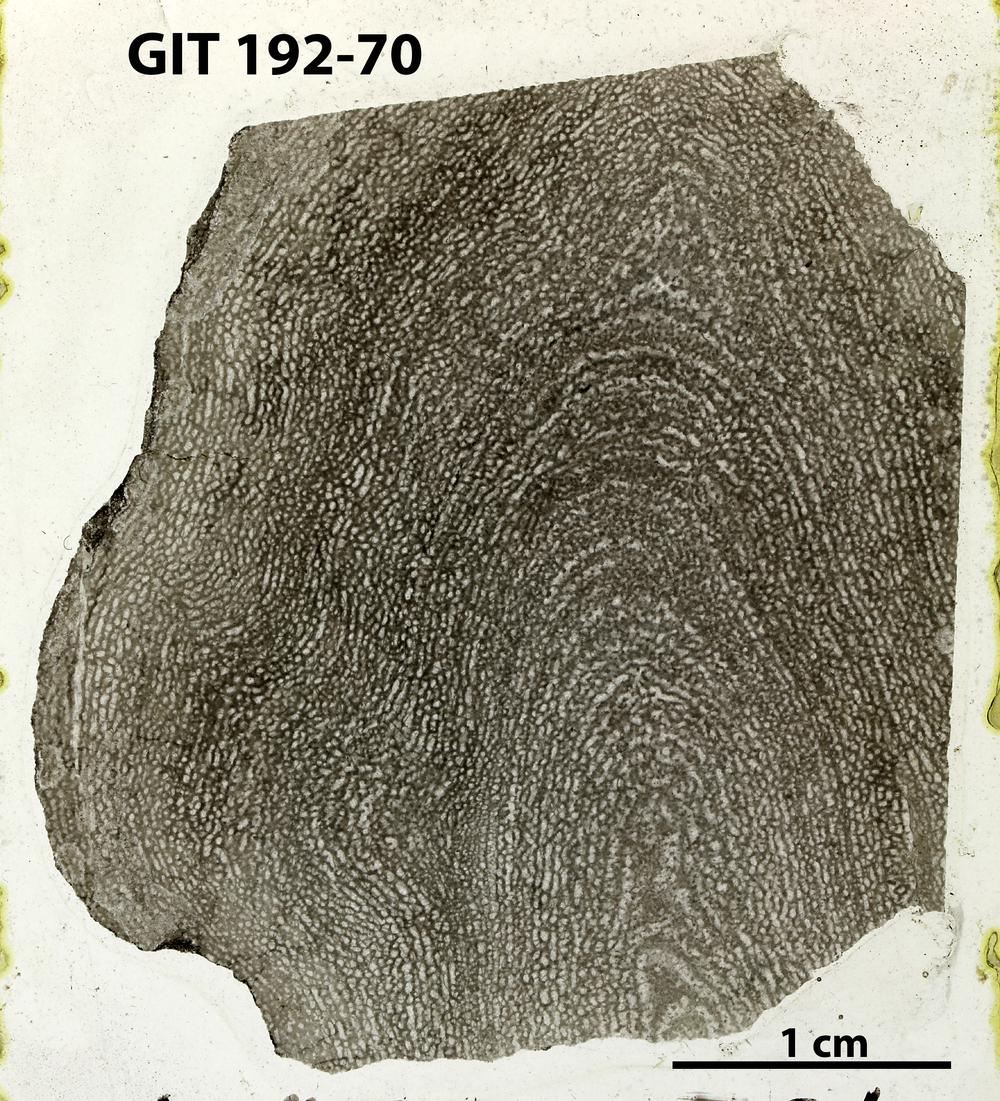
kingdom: Animalia
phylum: Porifera
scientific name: Porifera
